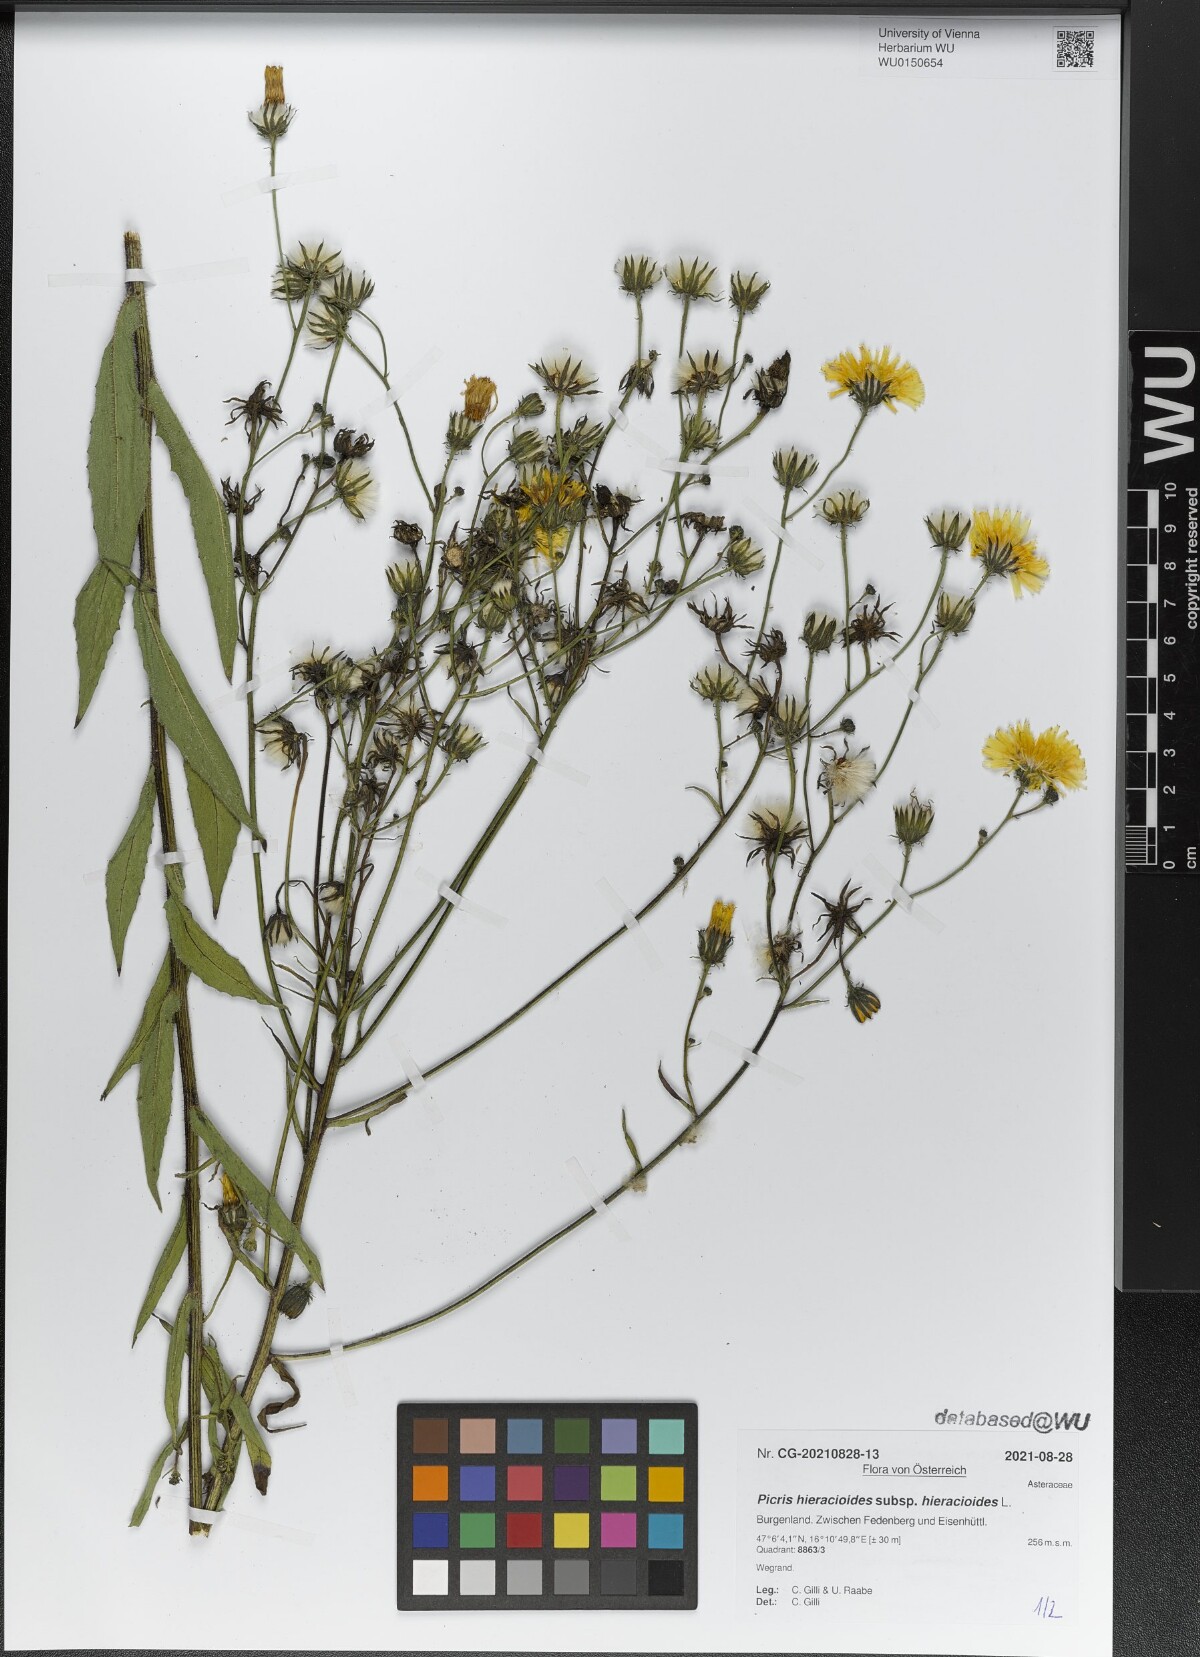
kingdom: Plantae
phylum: Tracheophyta
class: Magnoliopsida
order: Asterales
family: Asteraceae
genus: Picris
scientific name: Picris hieracioides
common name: Hawkweed oxtongue
